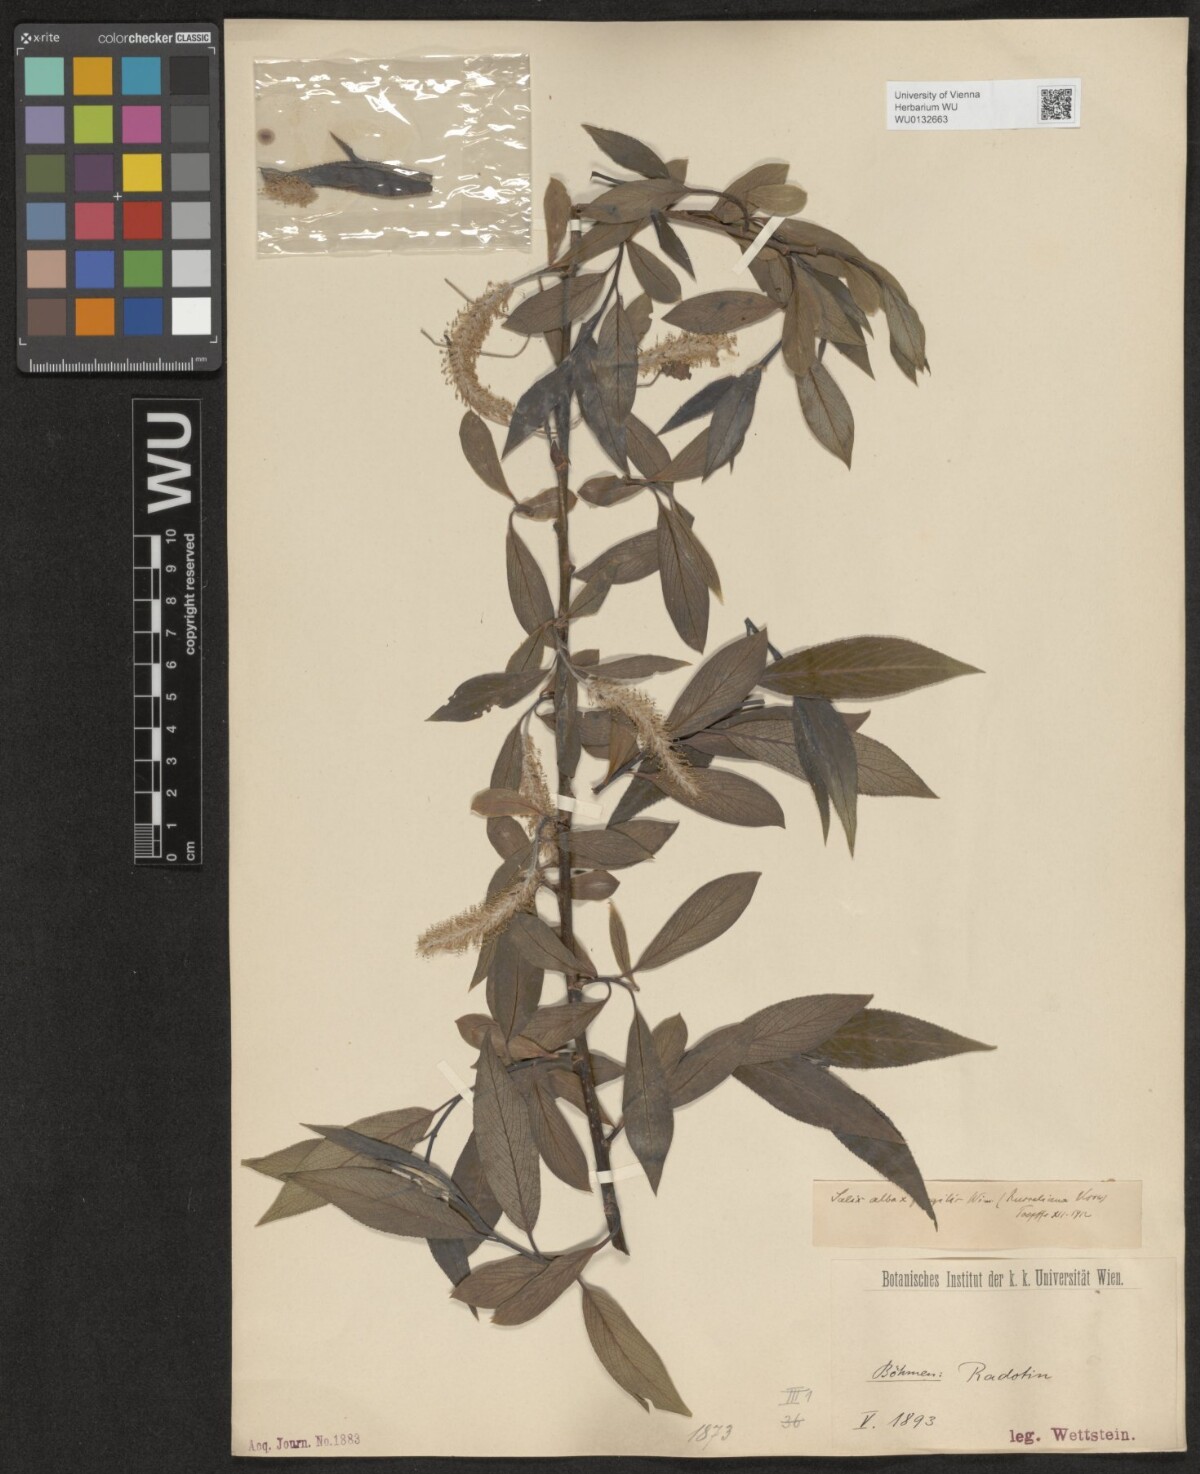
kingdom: Plantae
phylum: Tracheophyta
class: Magnoliopsida
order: Malpighiales
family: Salicaceae
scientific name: Salicaceae
